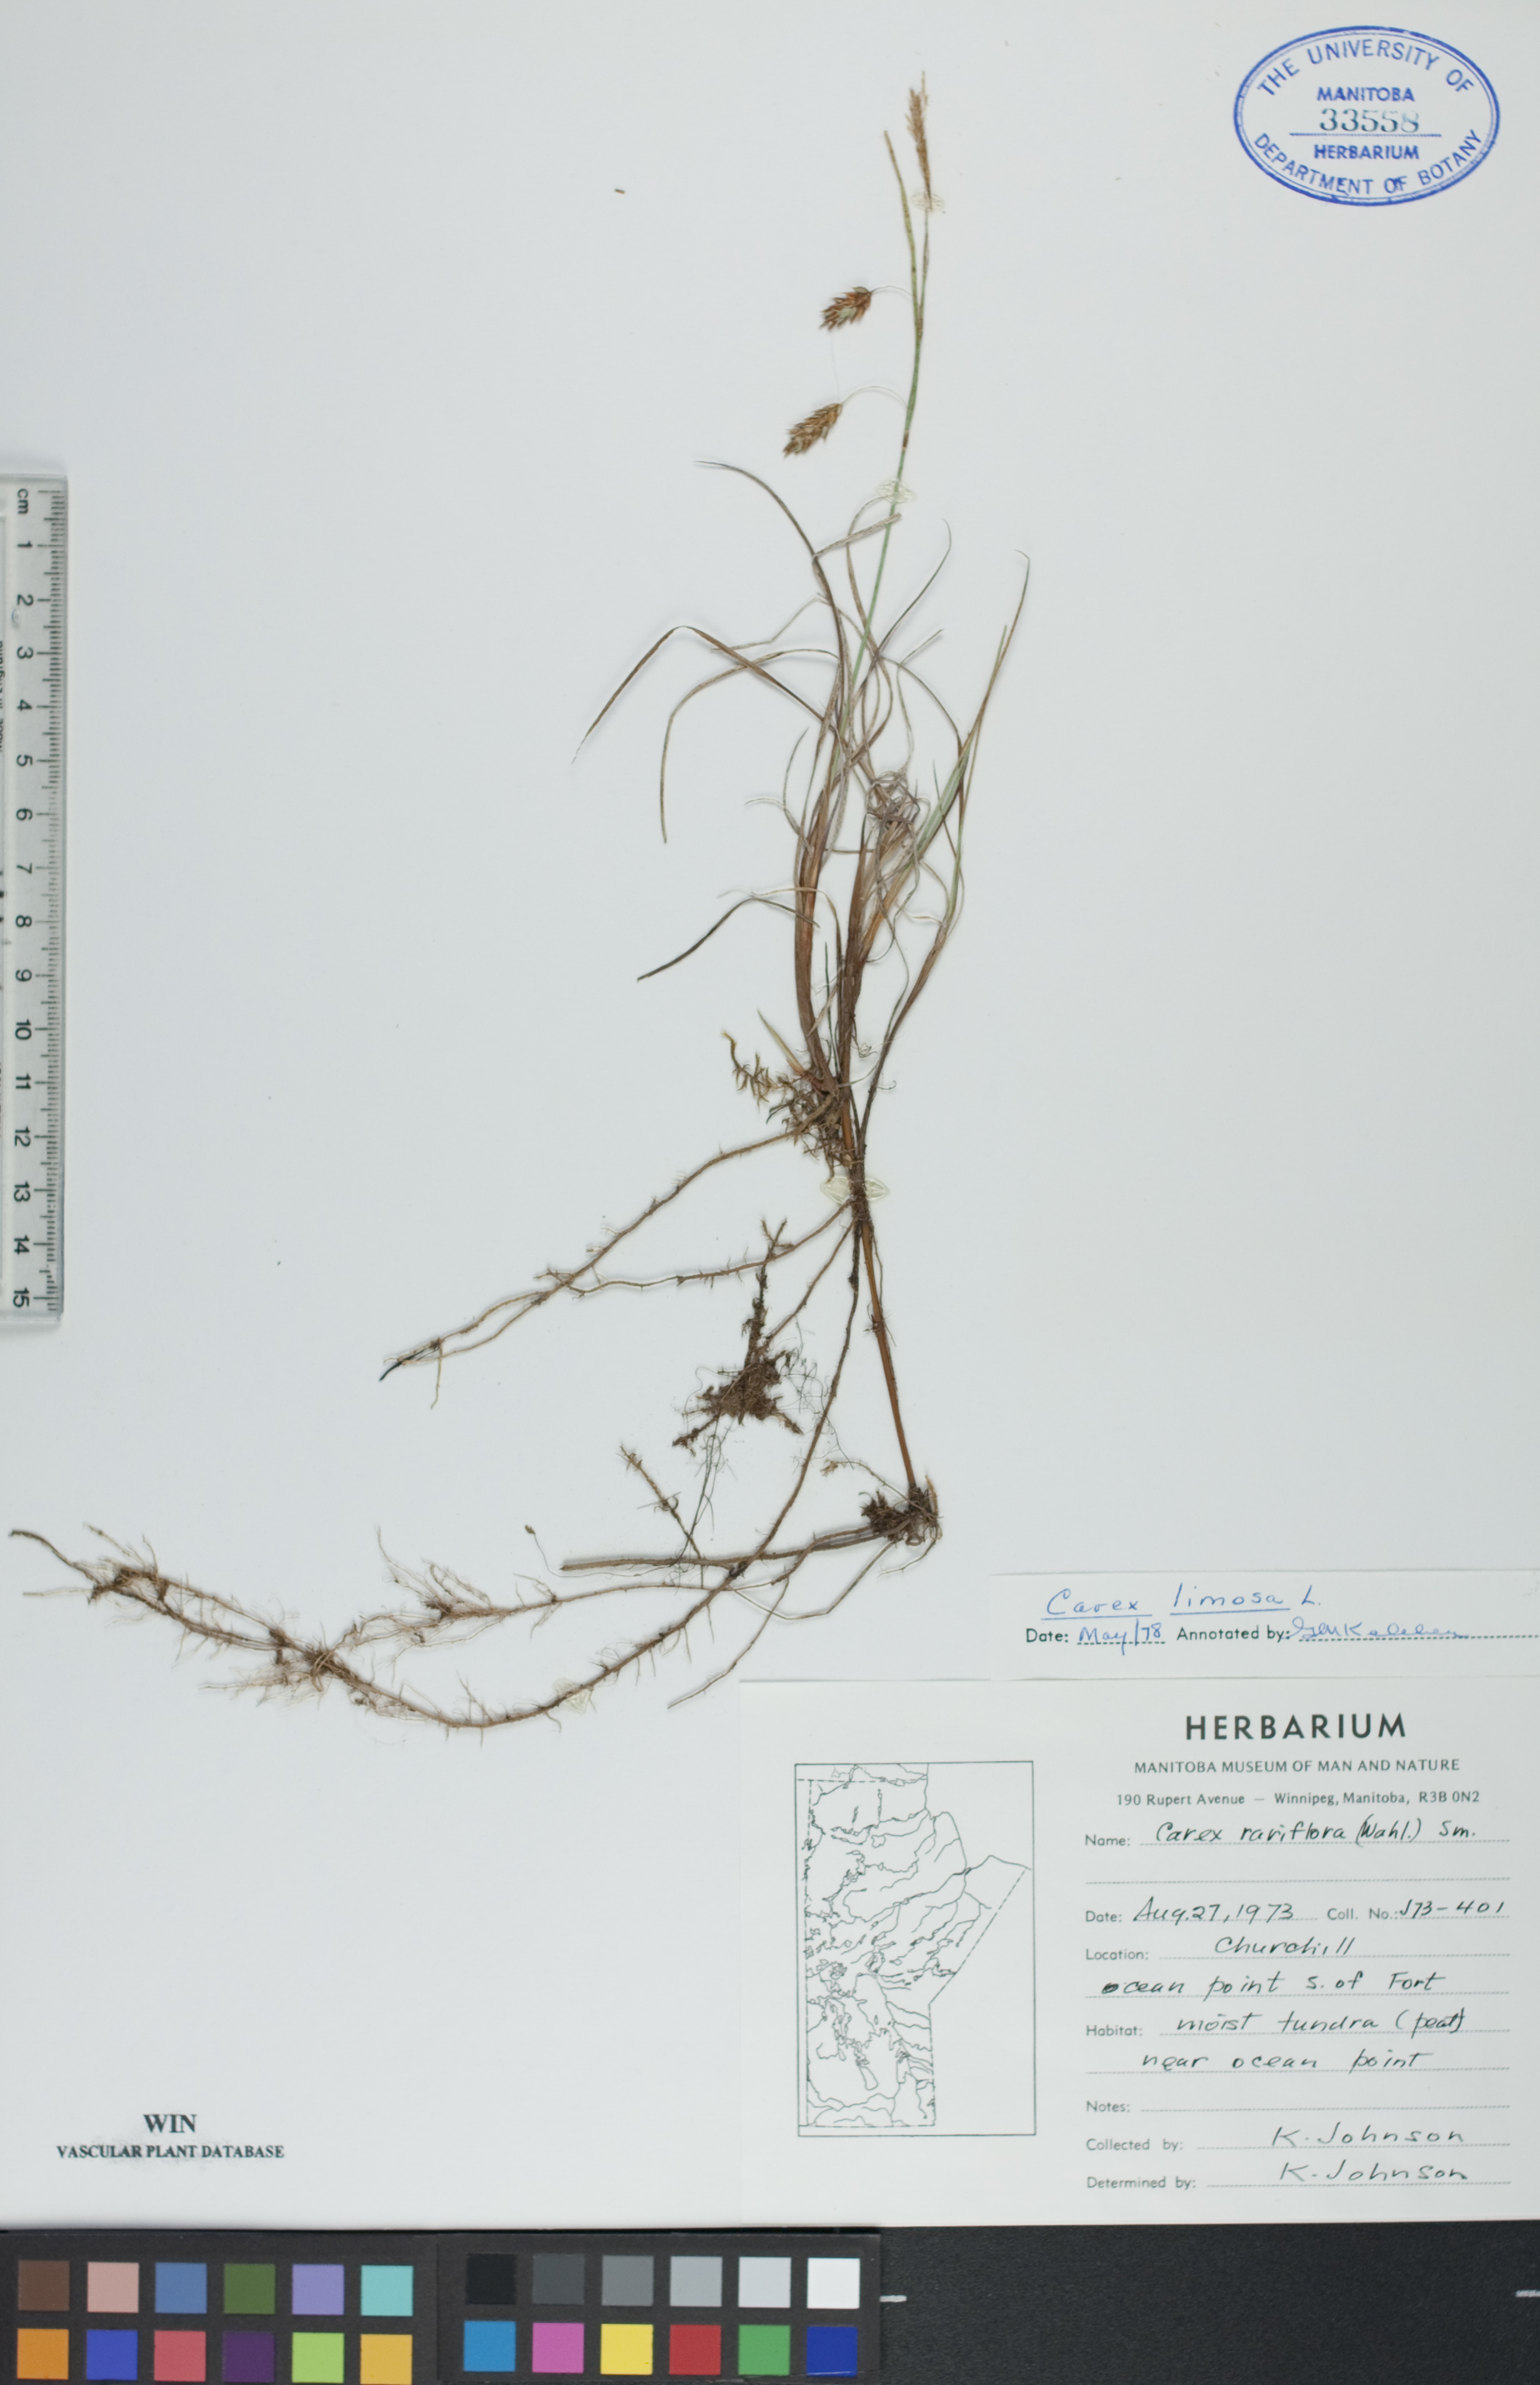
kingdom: Plantae
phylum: Tracheophyta
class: Liliopsida
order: Poales
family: Cyperaceae
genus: Carex
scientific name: Carex limosa
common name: Bog sedge
